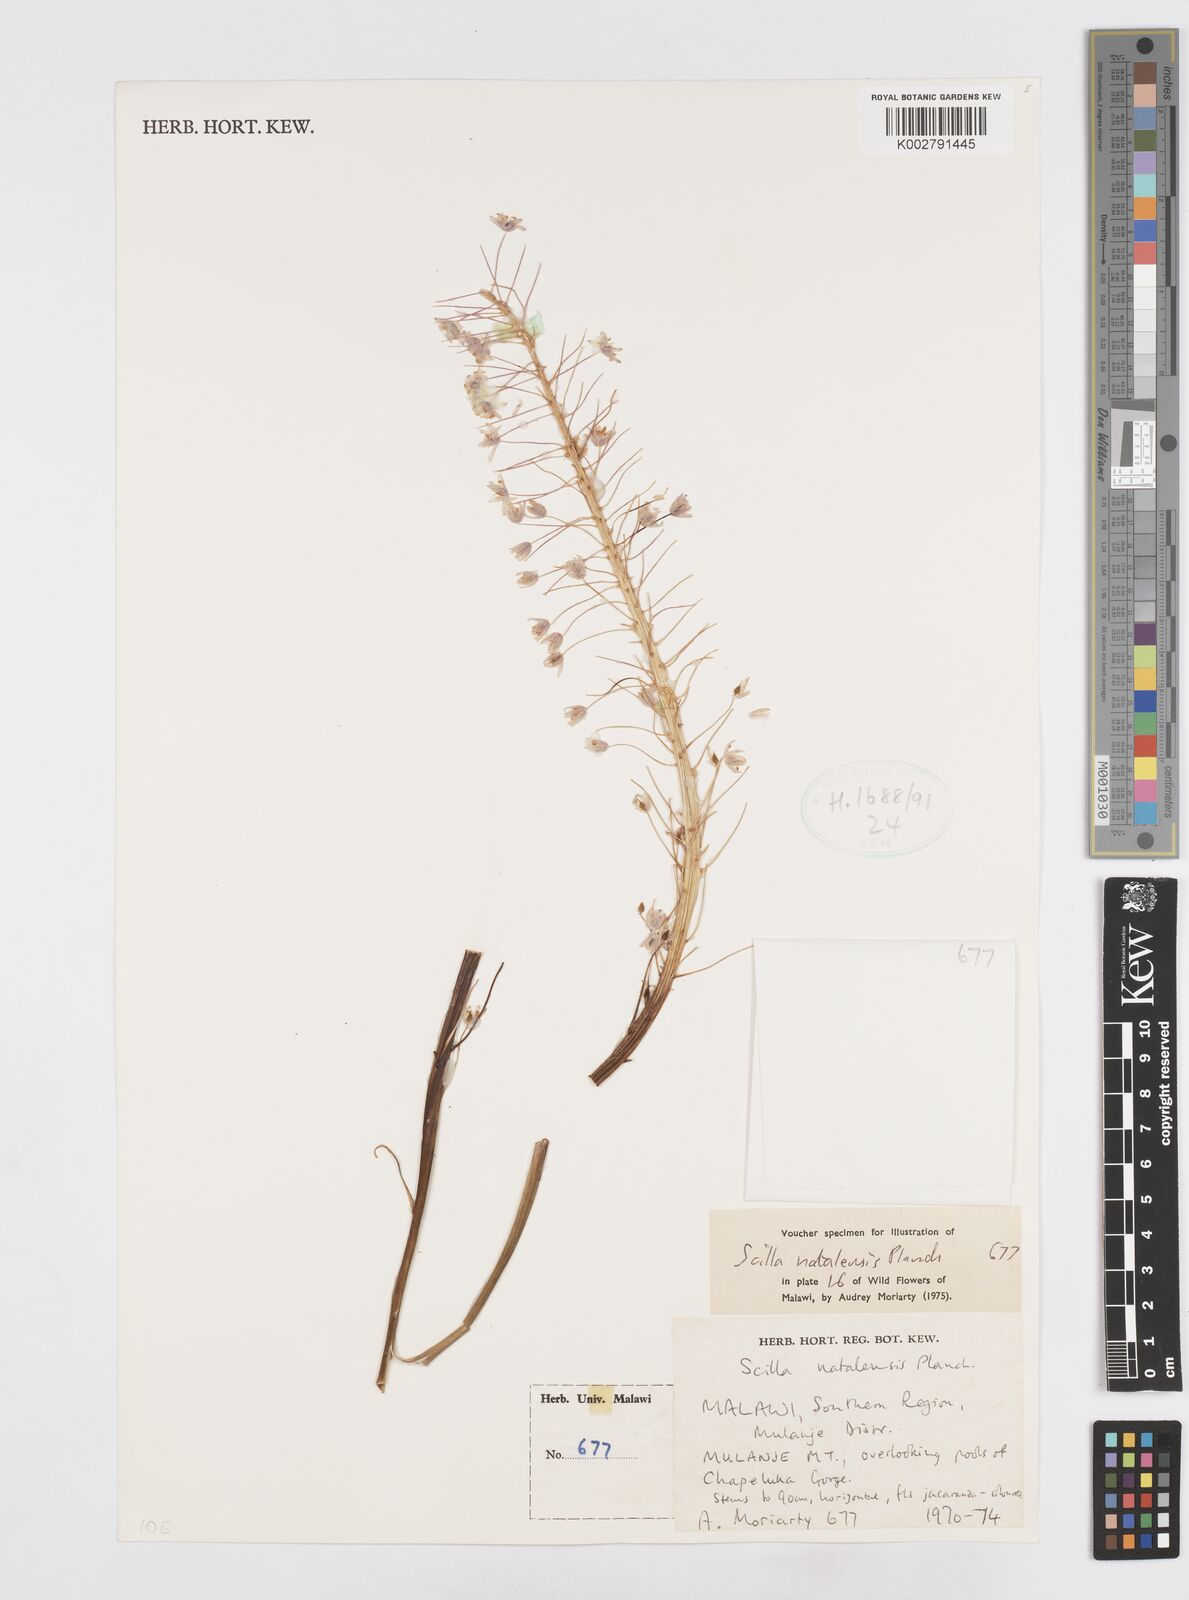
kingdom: Plantae
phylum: Tracheophyta
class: Liliopsida
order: Asparagales
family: Asparagaceae
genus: Merwilla
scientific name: Merwilla plumbea
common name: Blue-squill
